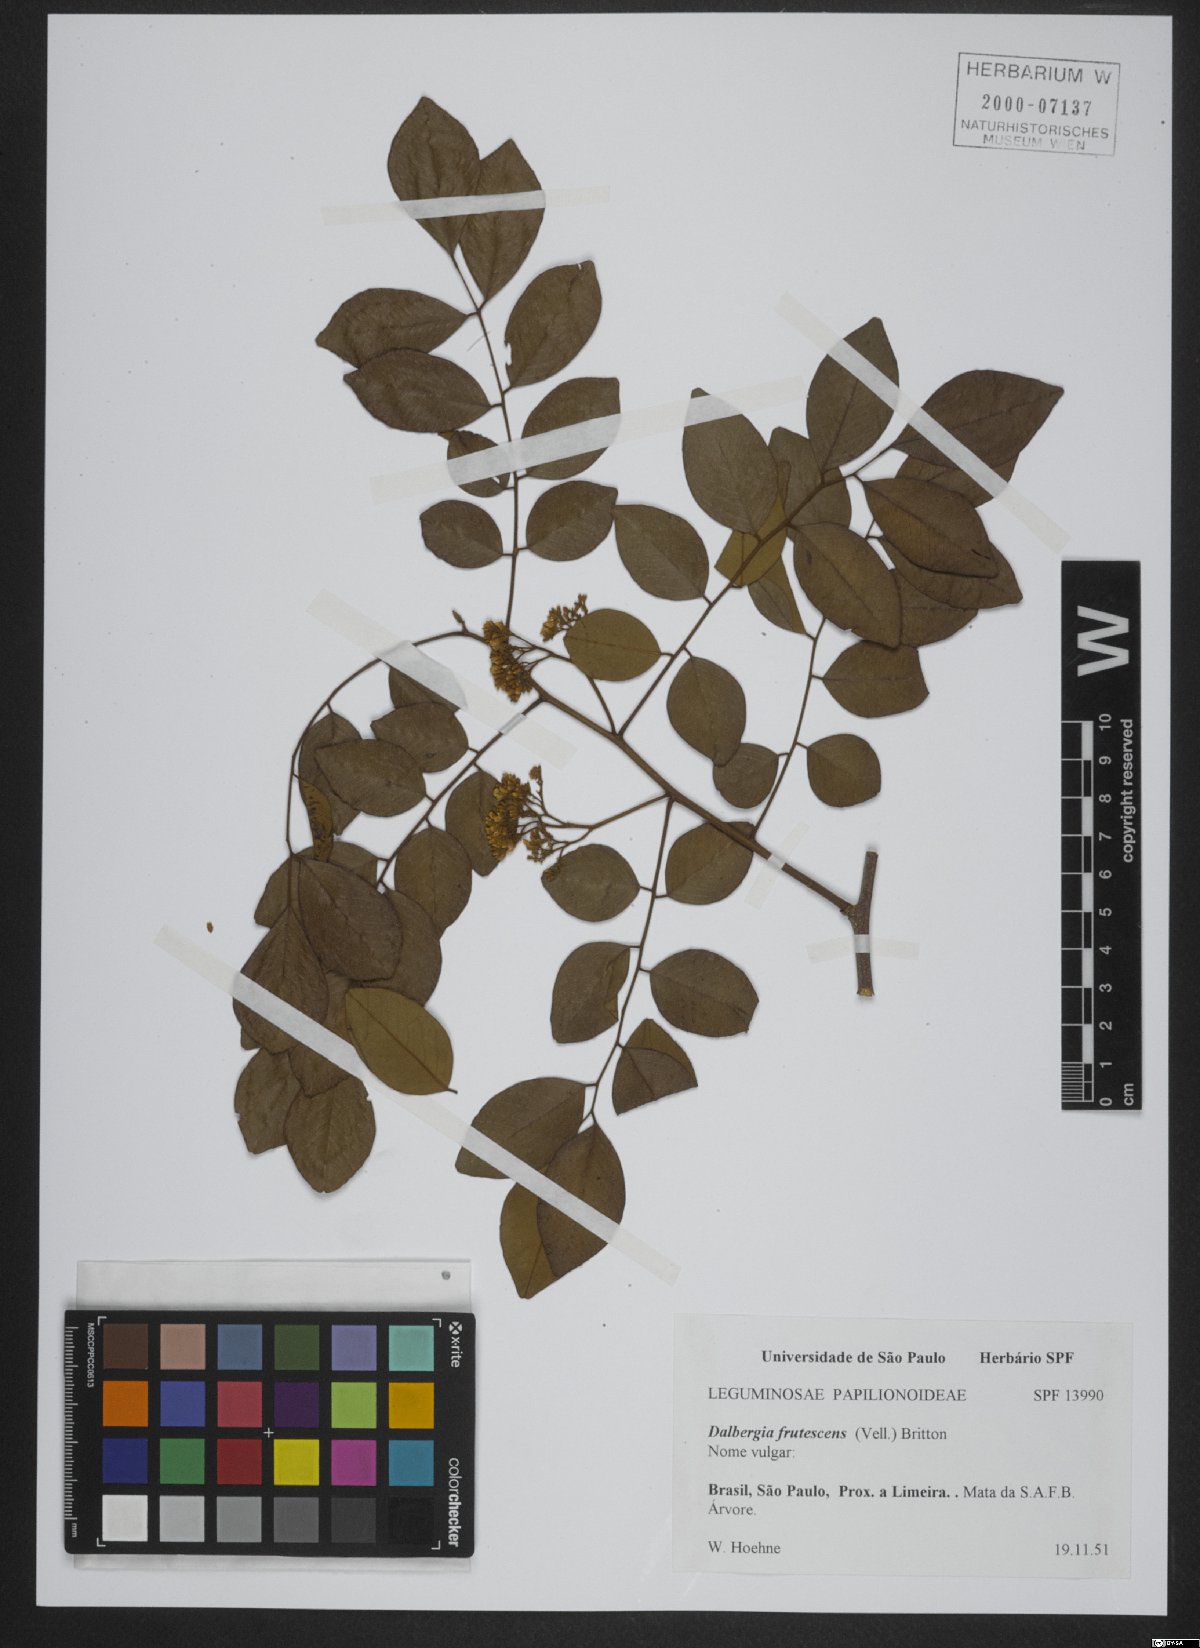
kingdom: Plantae
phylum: Tracheophyta
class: Magnoliopsida
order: Fabales
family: Fabaceae
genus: Dalbergia
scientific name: Dalbergia frutescens
